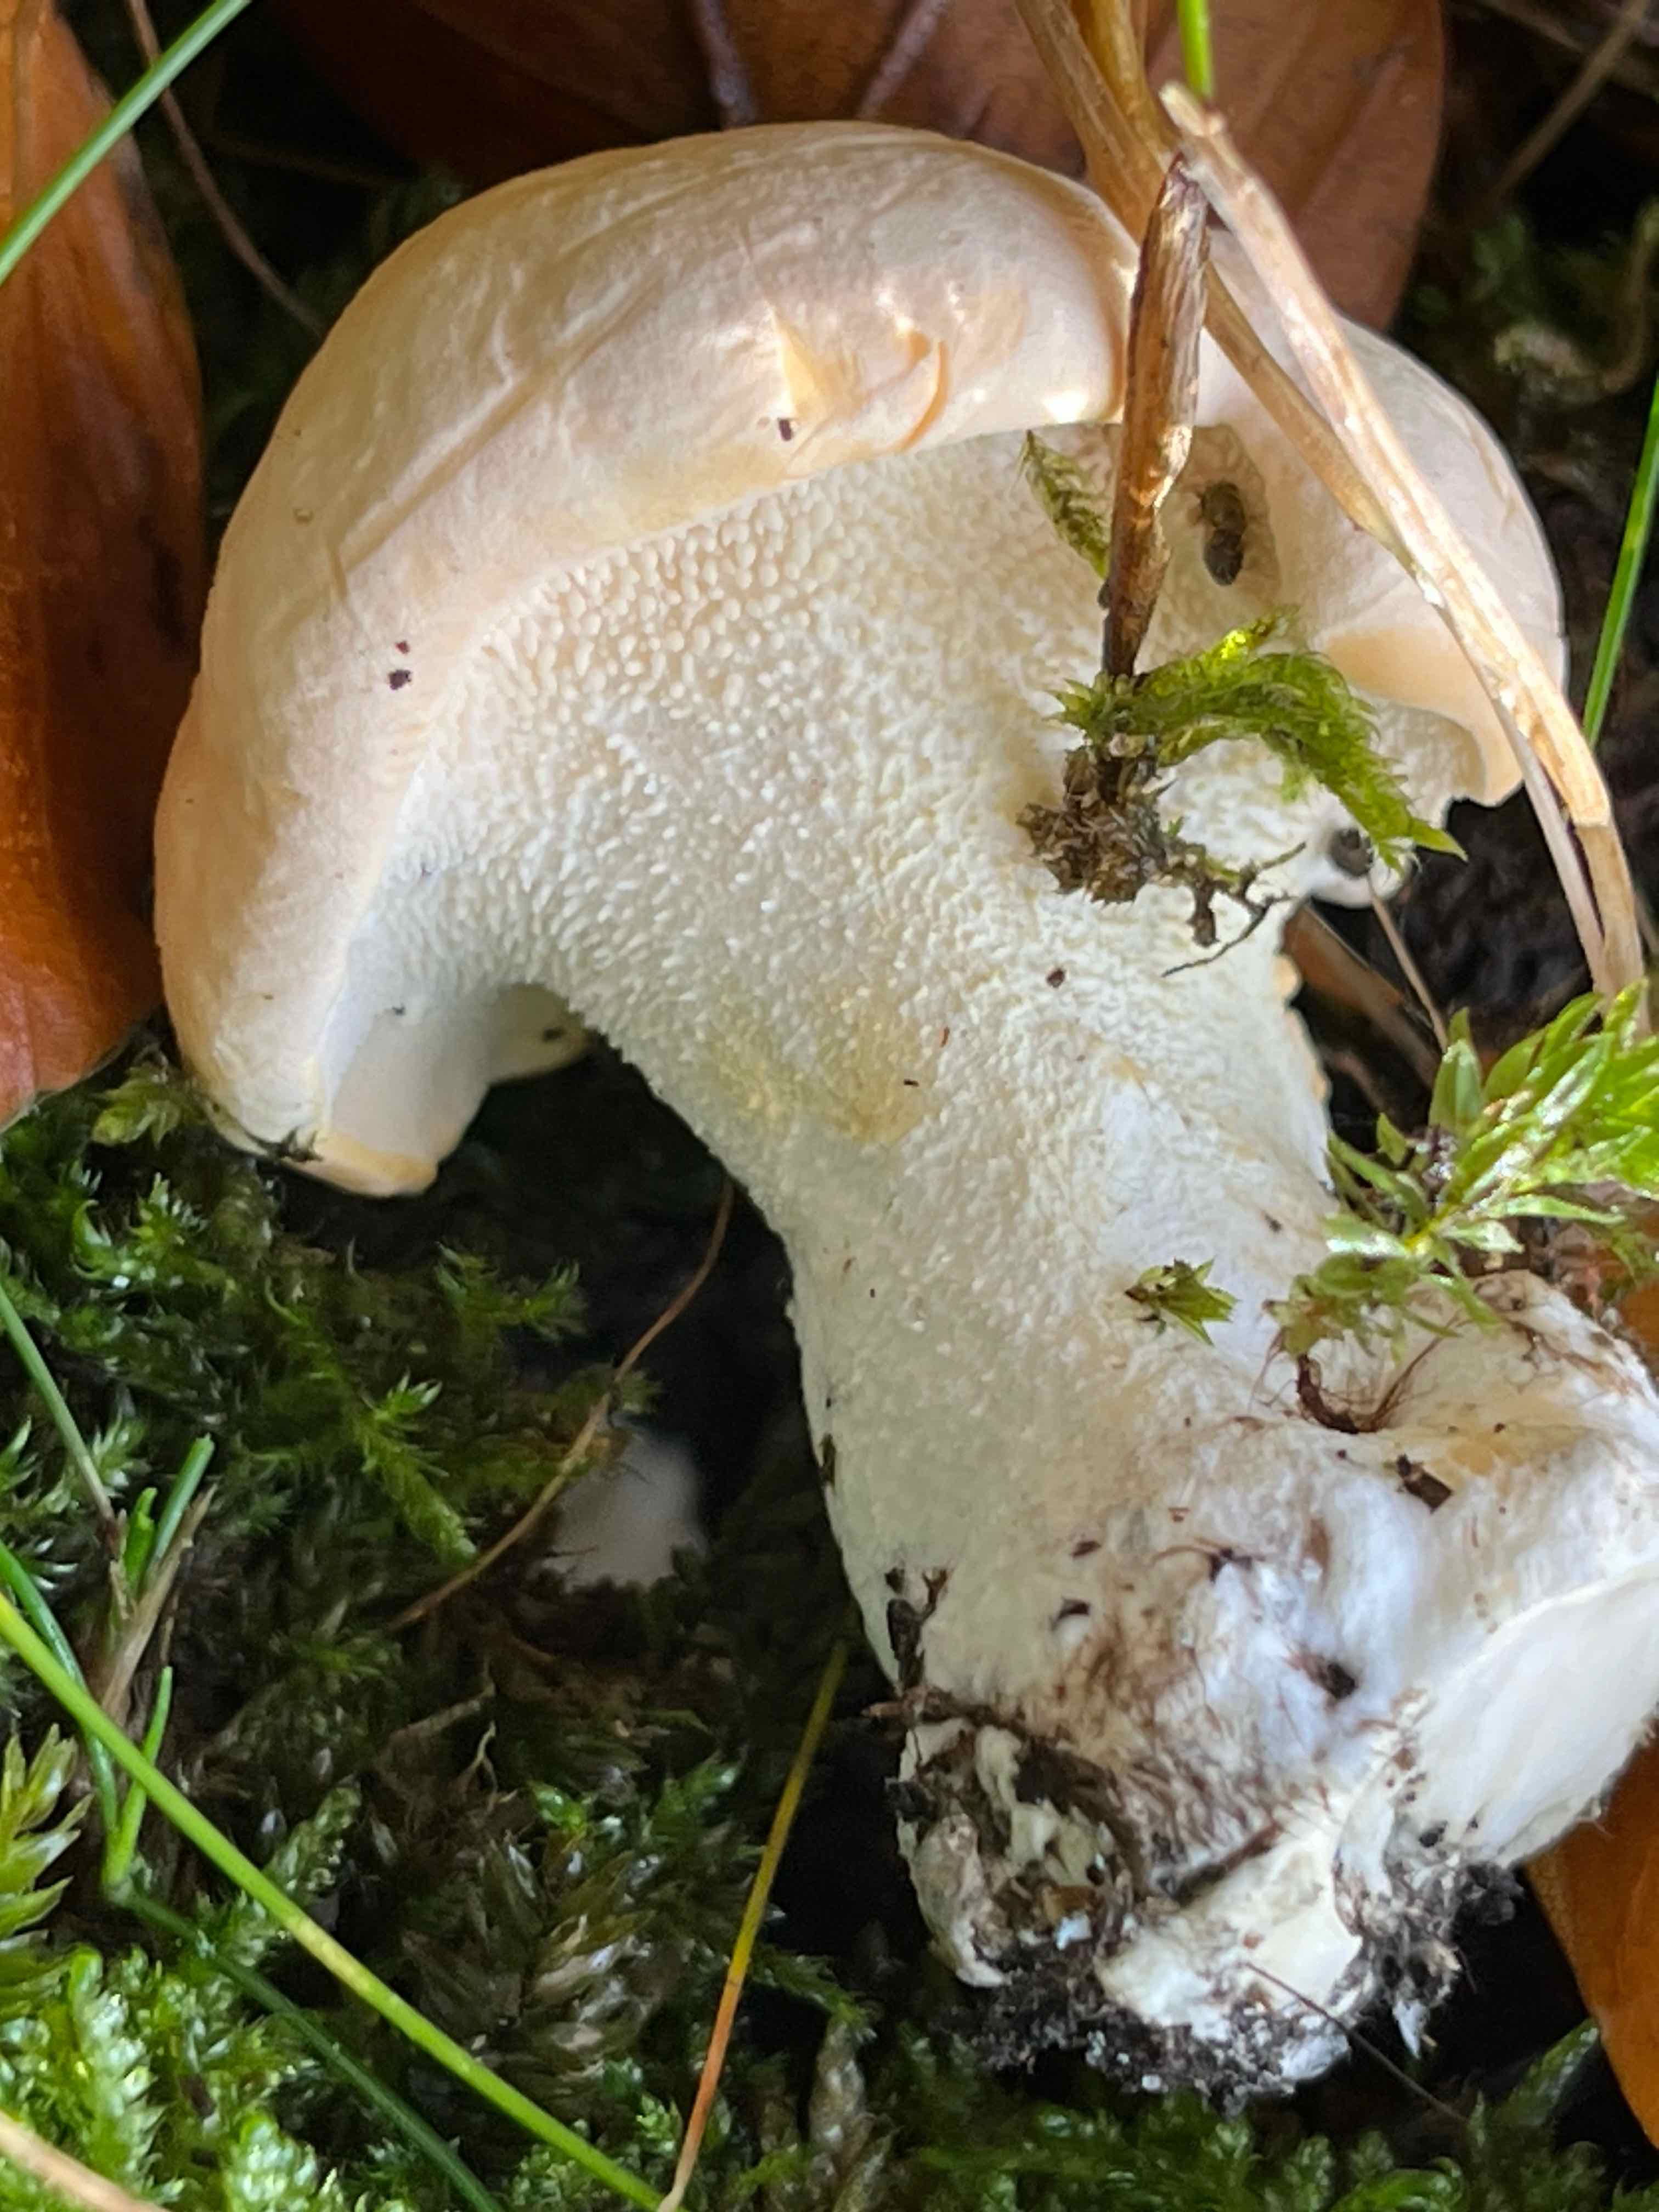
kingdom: Fungi
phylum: Basidiomycota
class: Agaricomycetes
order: Cantharellales
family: Hydnaceae
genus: Hydnum
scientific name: Hydnum
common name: pigsvamp
